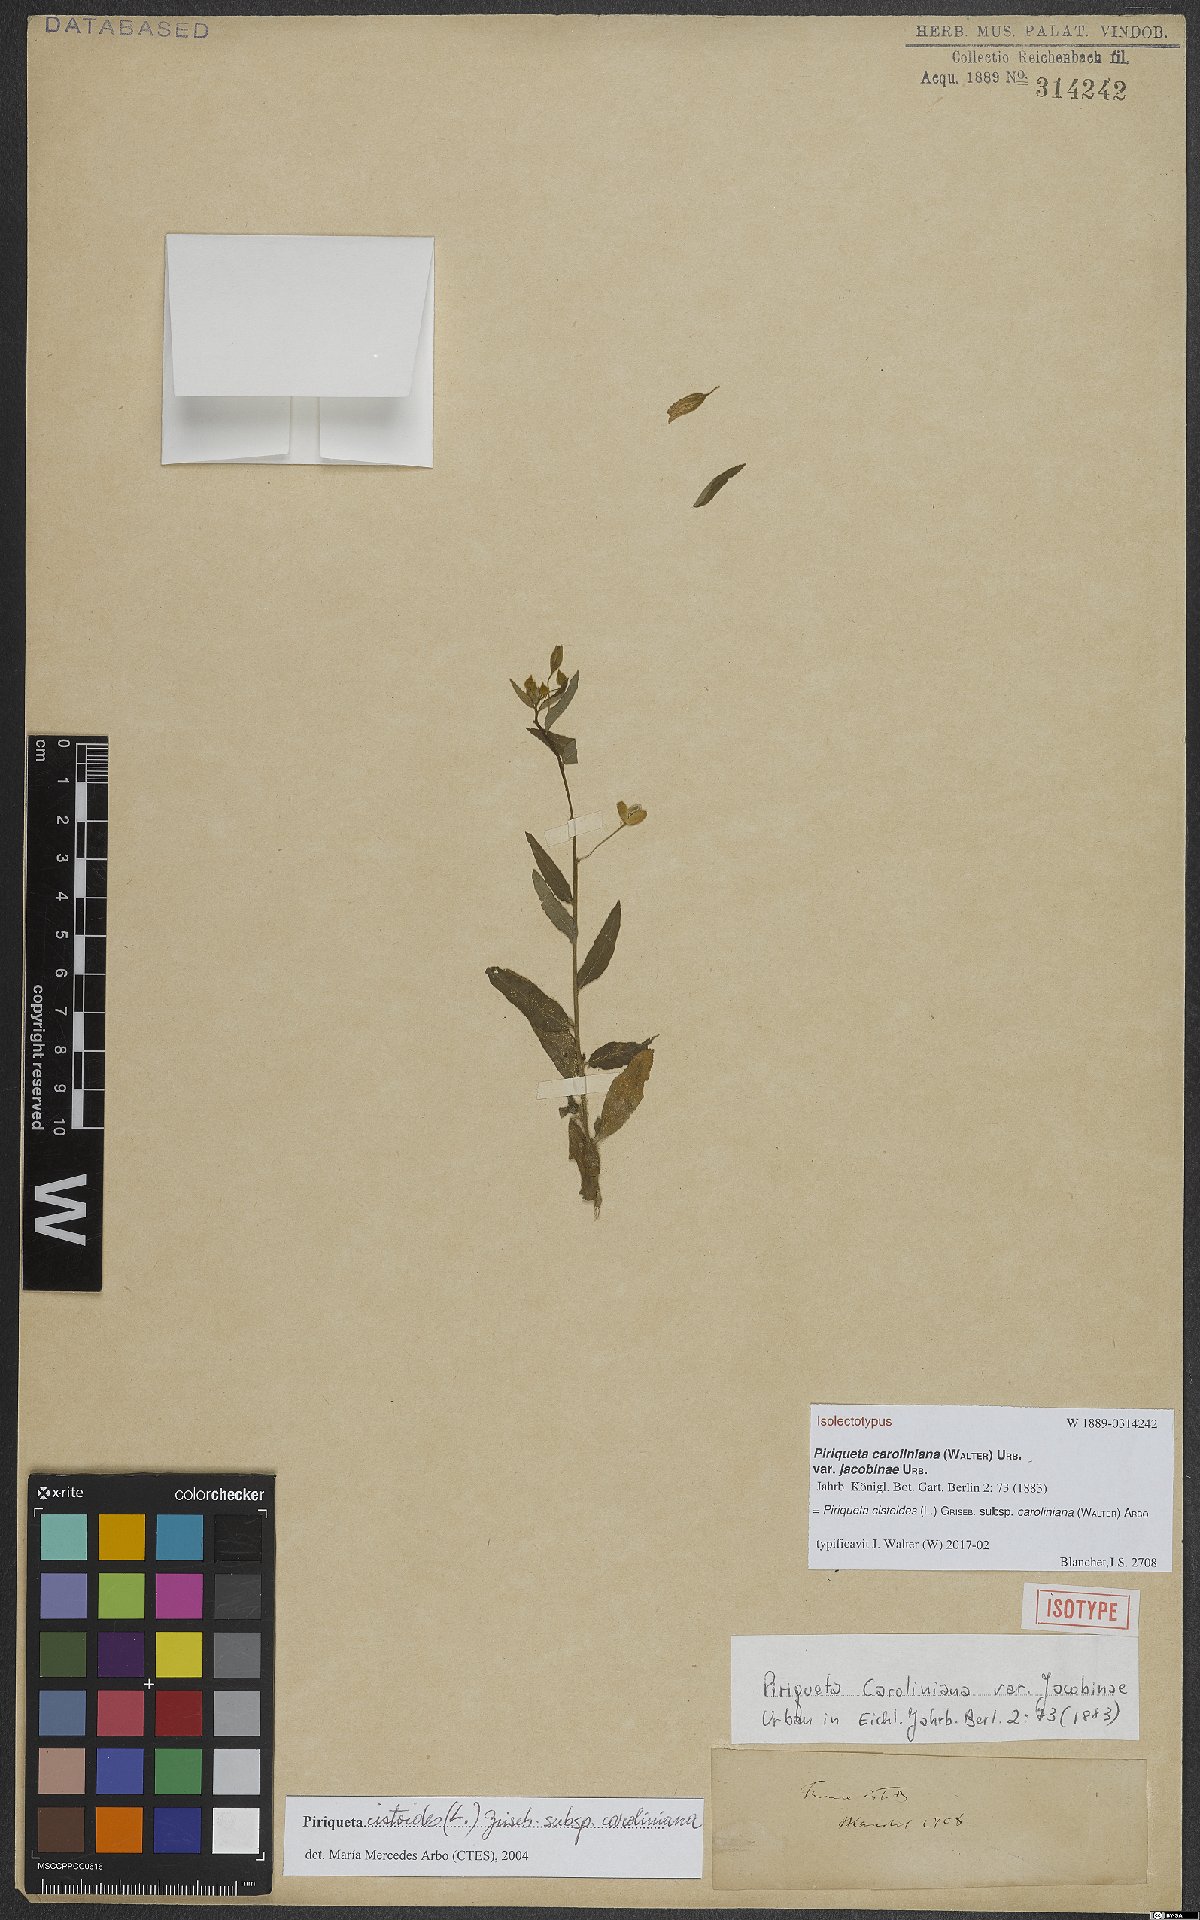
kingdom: Plantae
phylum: Tracheophyta
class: Magnoliopsida
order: Malpighiales
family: Turneraceae
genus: Piriqueta
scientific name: Piriqueta cistoides
